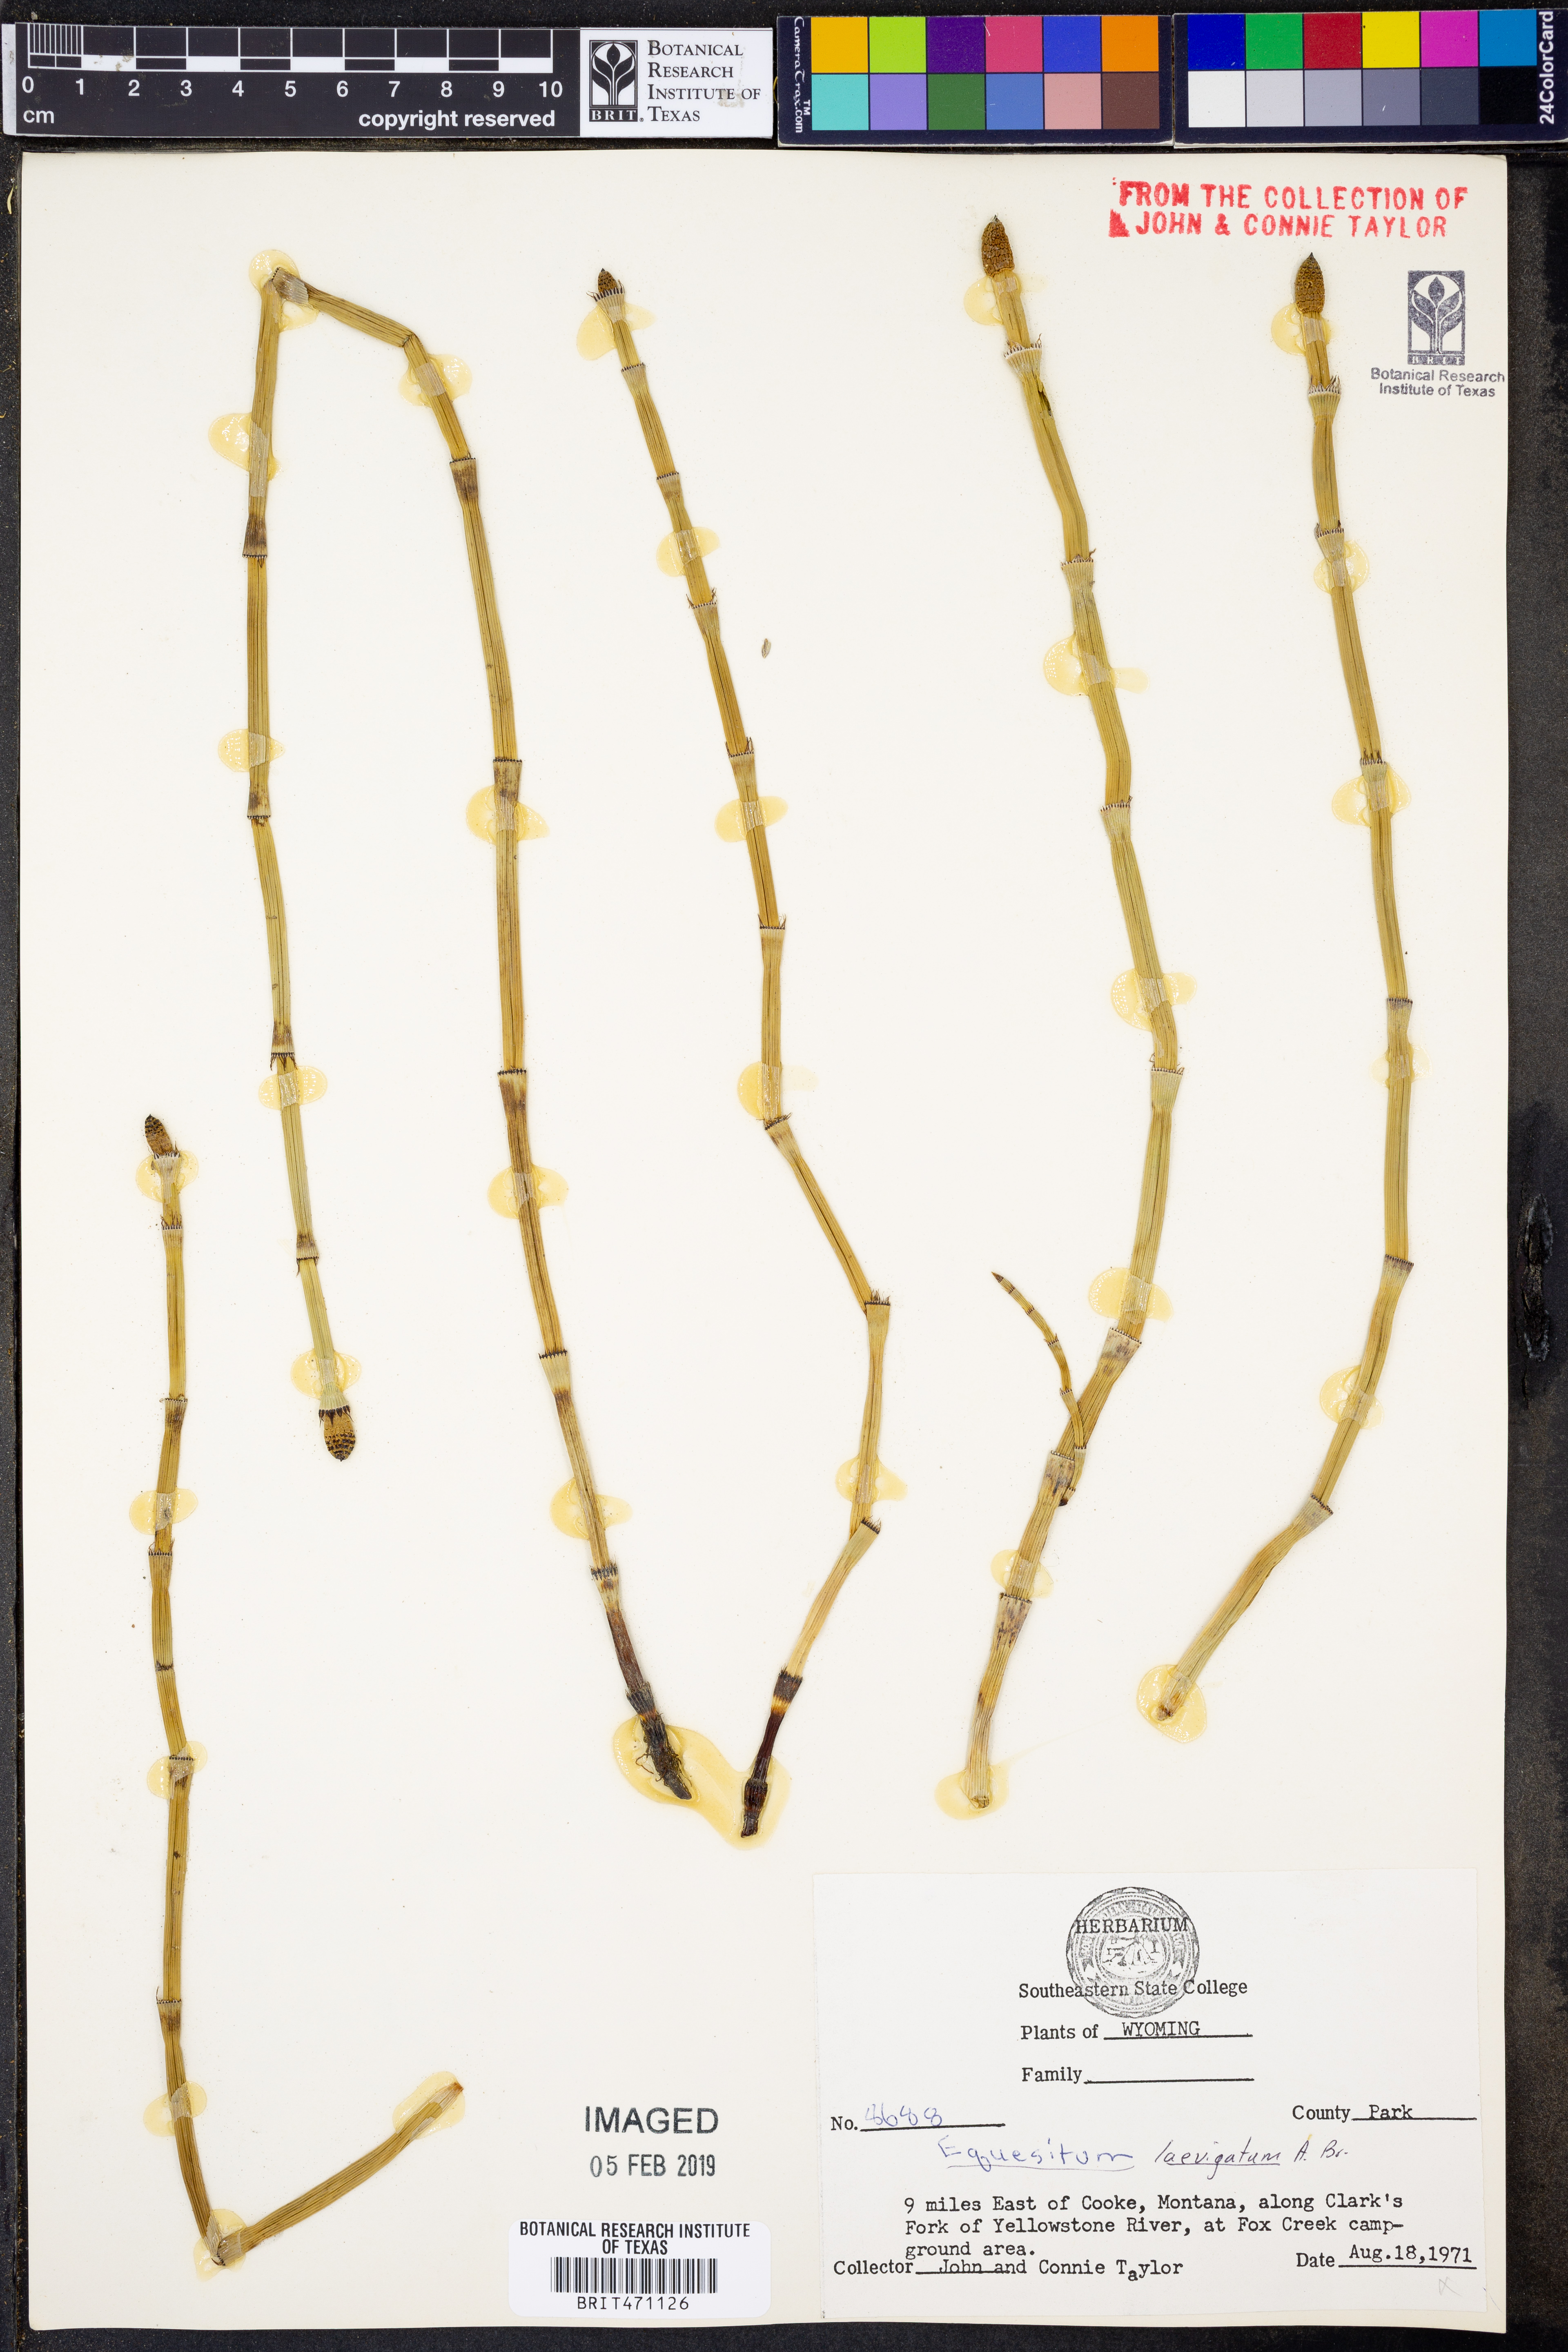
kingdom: Plantae
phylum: Tracheophyta
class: Polypodiopsida
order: Equisetales
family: Equisetaceae
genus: Equisetum
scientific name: Equisetum laevigatum
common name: Smooth scouring-rush
